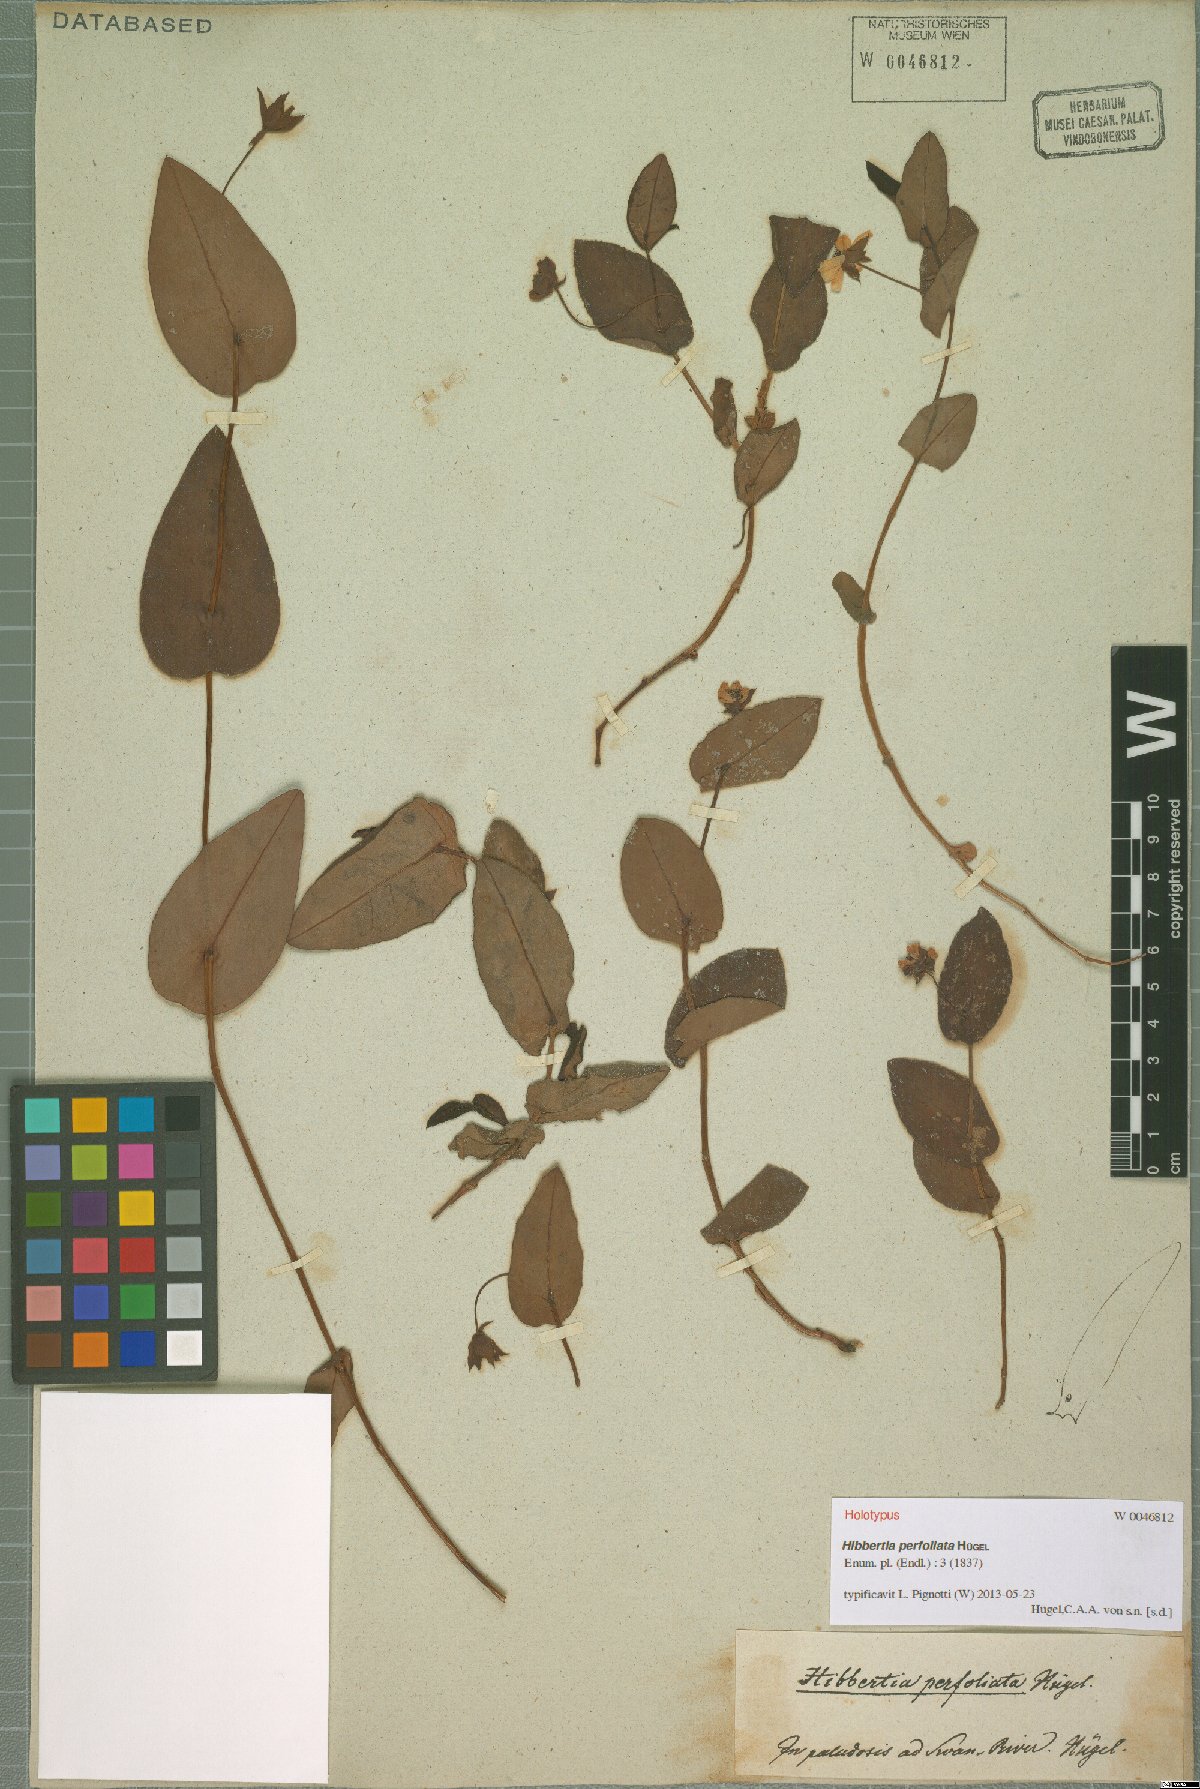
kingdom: Plantae
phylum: Tracheophyta
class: Magnoliopsida
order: Dilleniales
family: Dilleniaceae
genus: Hibbertia
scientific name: Hibbertia perfoliata
